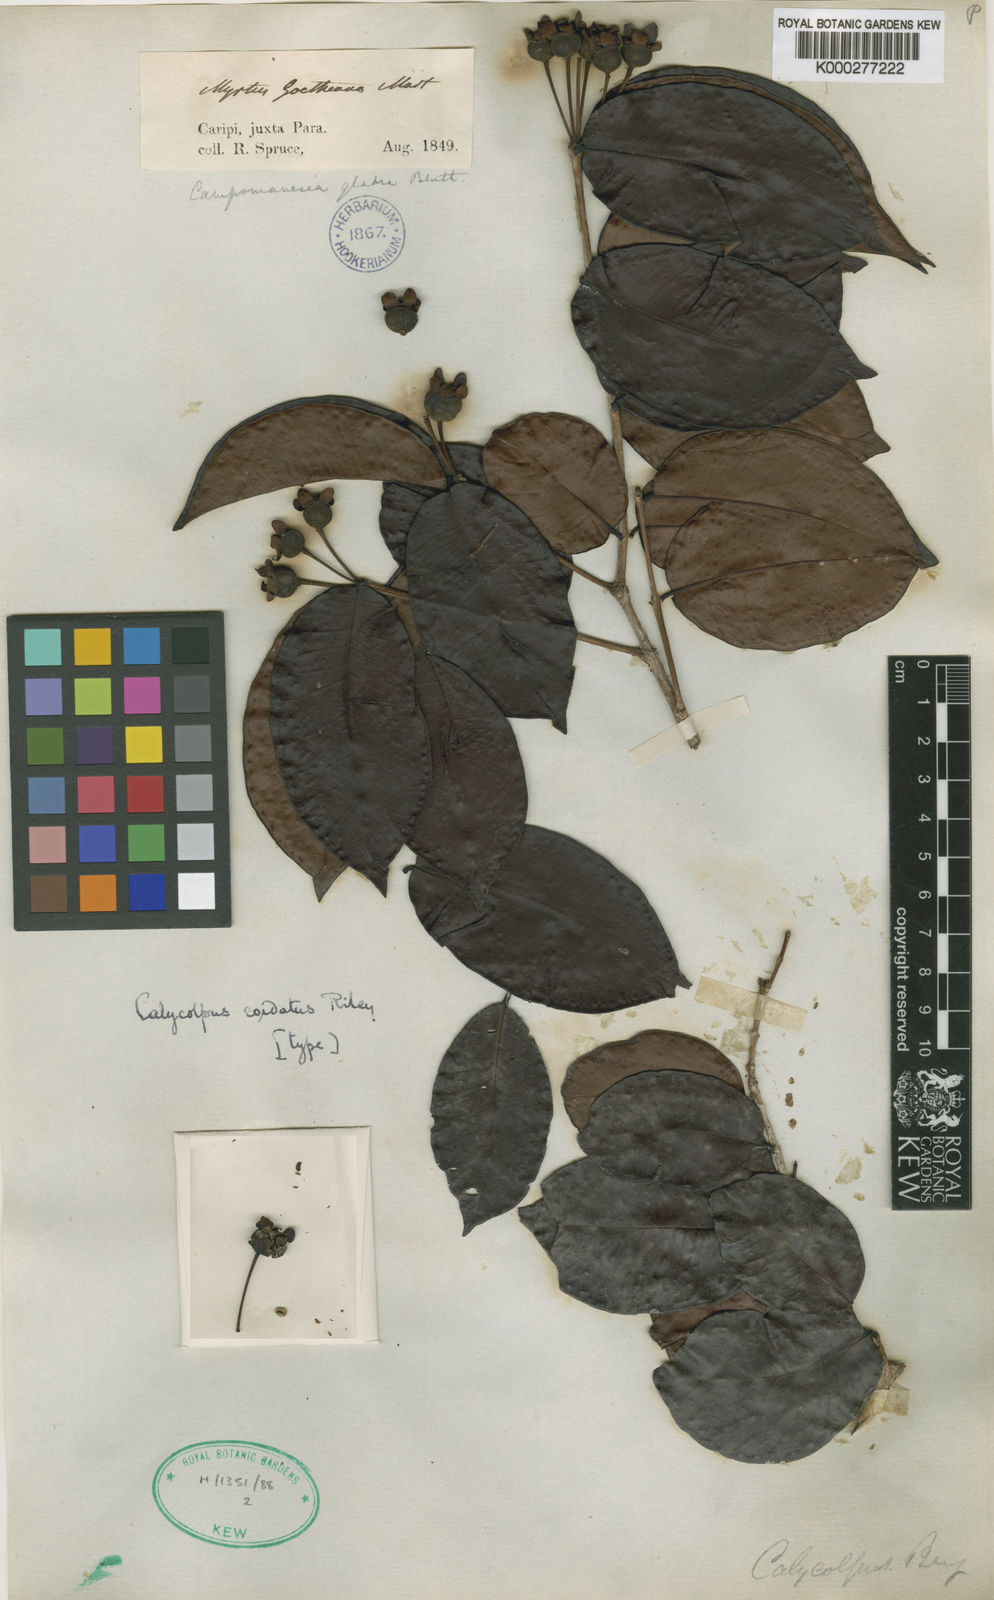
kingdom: Plantae
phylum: Tracheophyta
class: Magnoliopsida
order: Myrtales
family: Myrtaceae
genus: Calycolpus
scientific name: Calycolpus goetheanus
